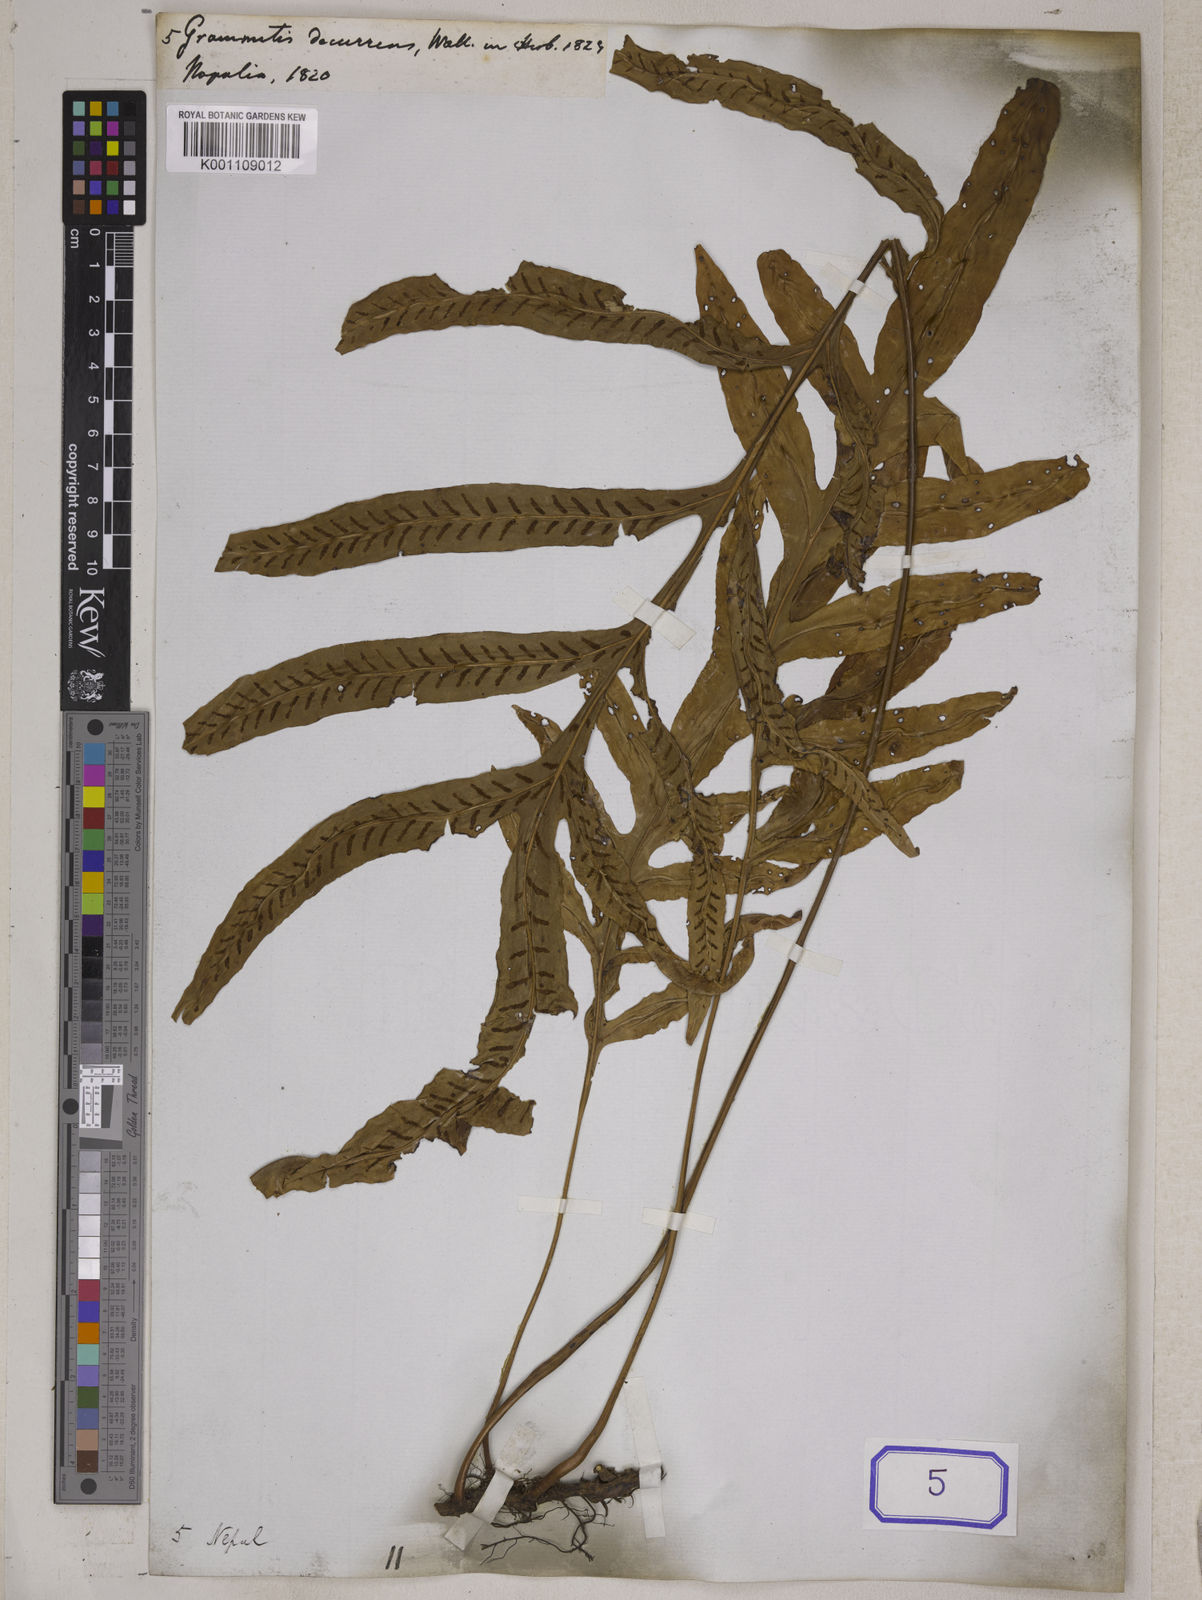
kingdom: Plantae
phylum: Tracheophyta
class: Polypodiopsida
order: Polypodiales
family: Polypodiaceae
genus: Grammitis
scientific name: Grammitis
